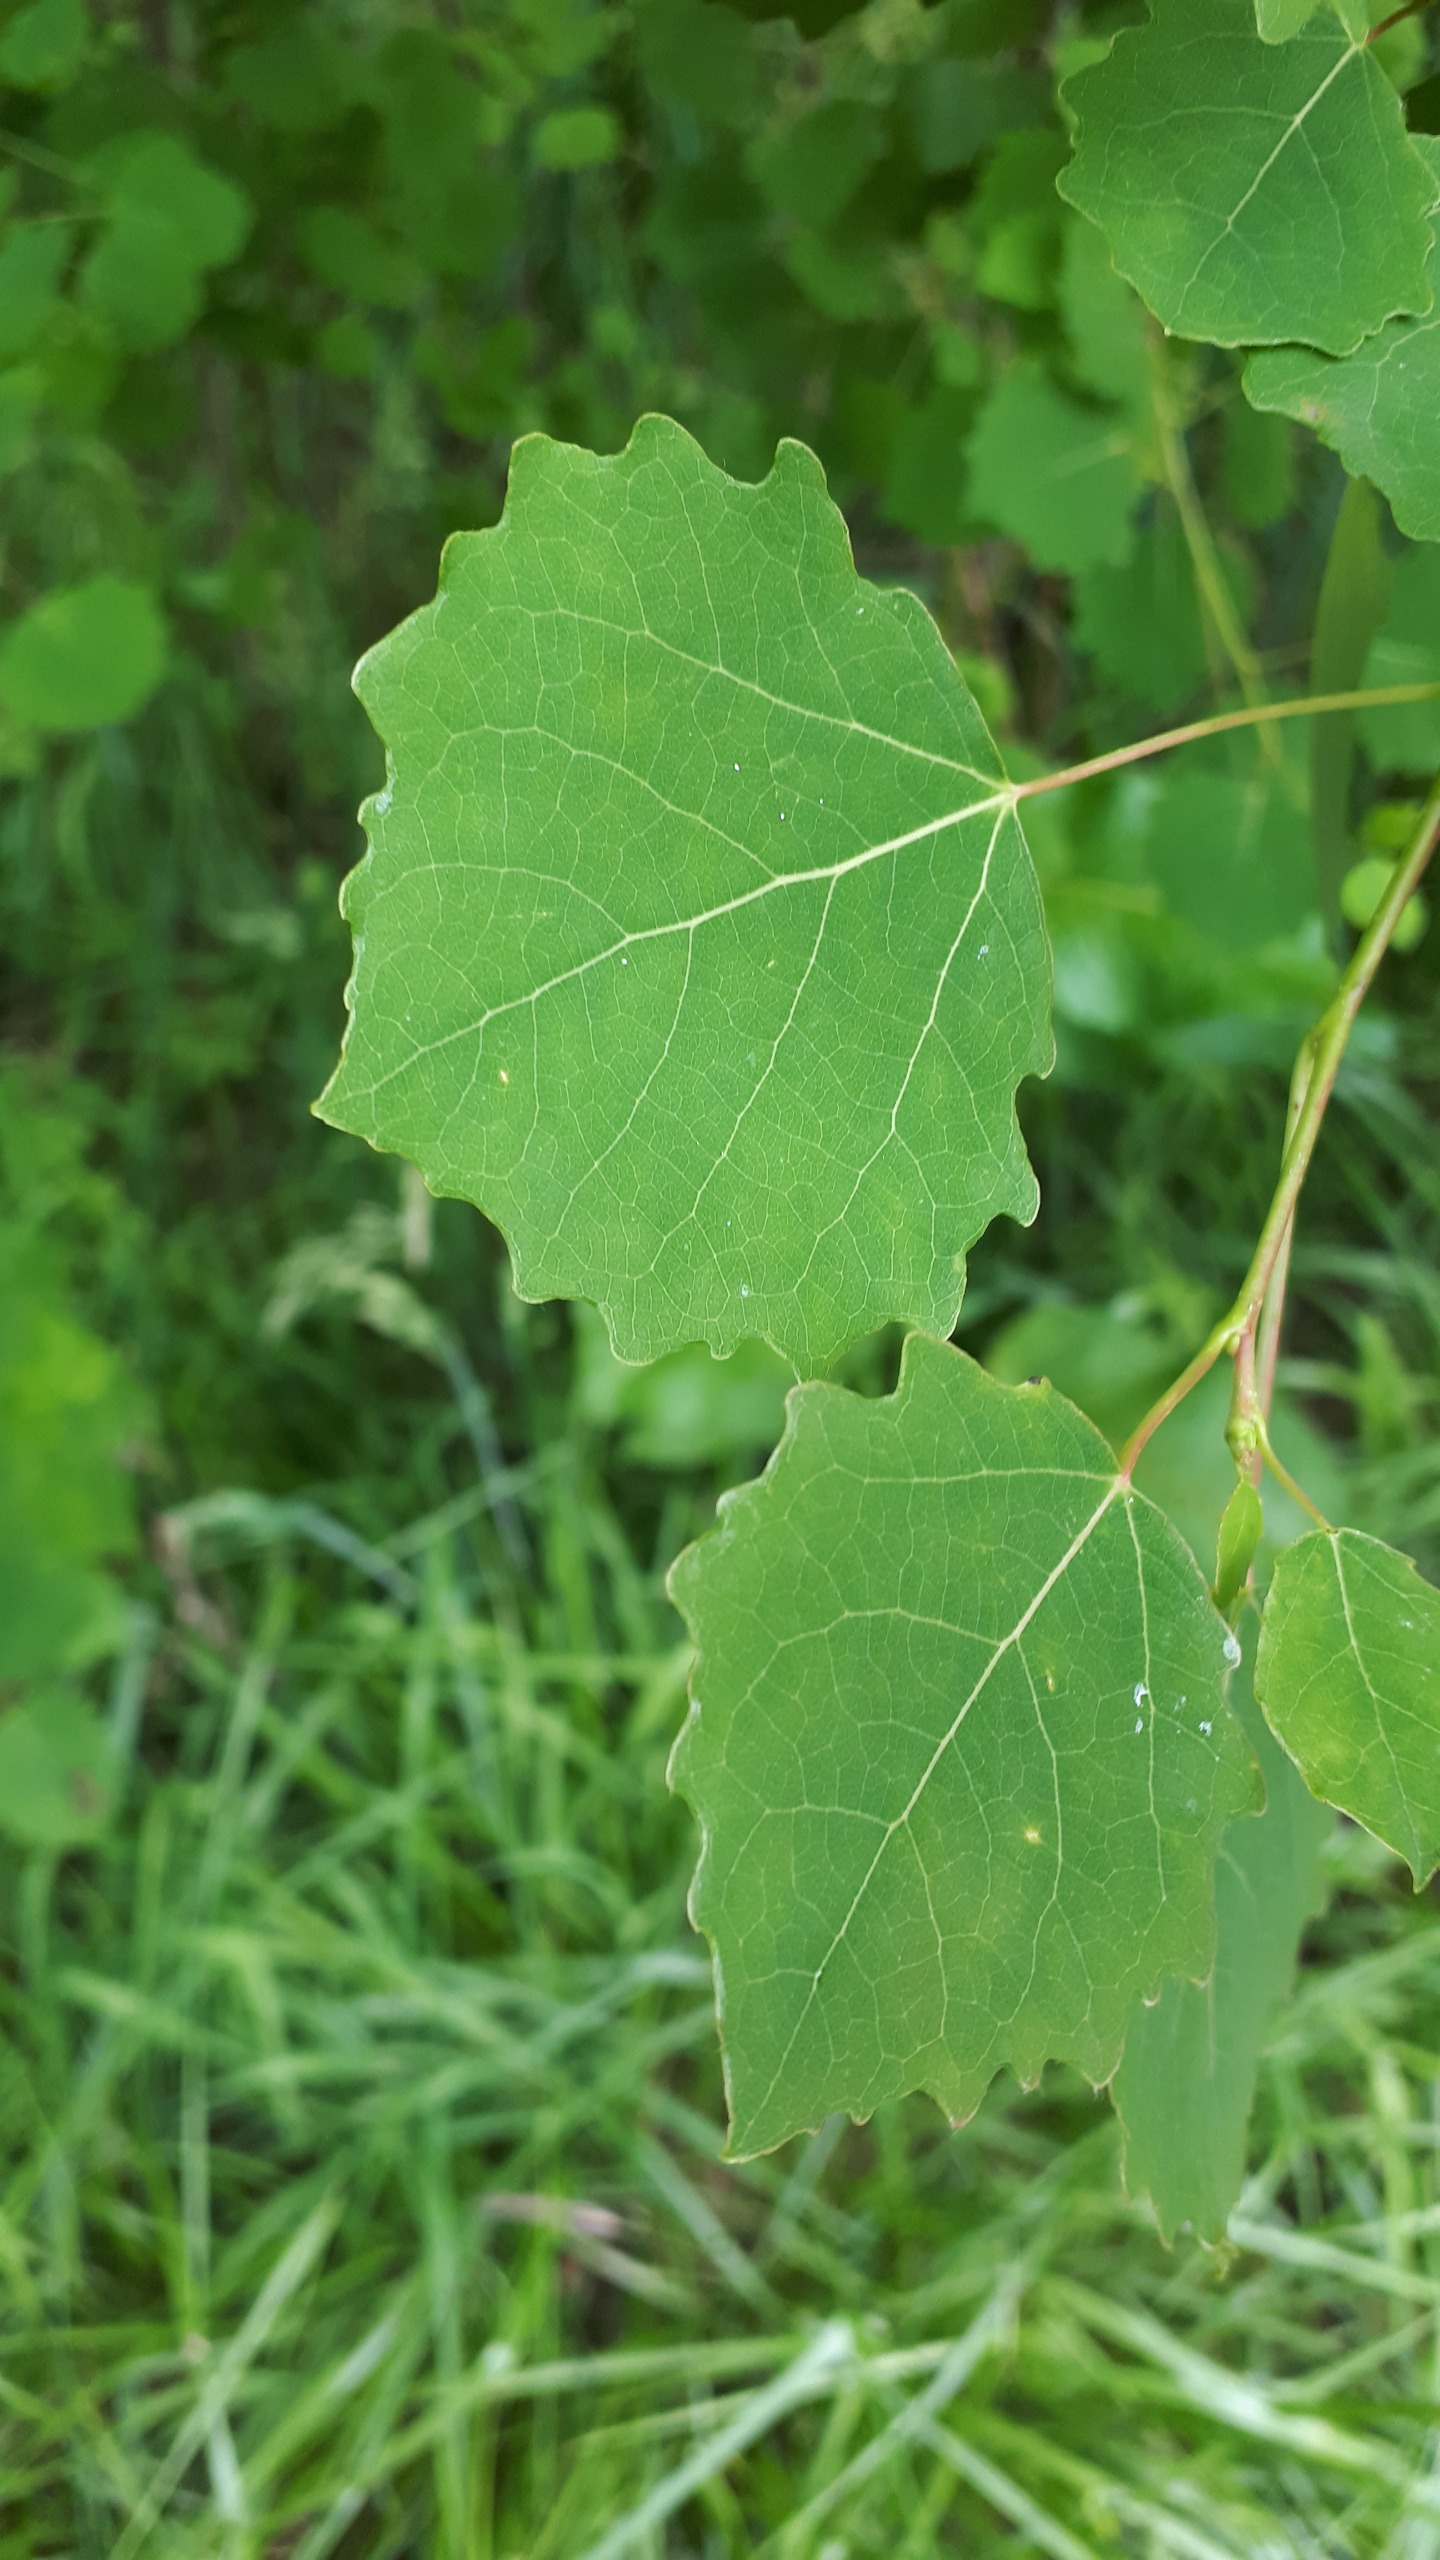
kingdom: Plantae
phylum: Tracheophyta
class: Magnoliopsida
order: Malpighiales
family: Salicaceae
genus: Populus
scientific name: Populus tremula
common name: Bævreasp
